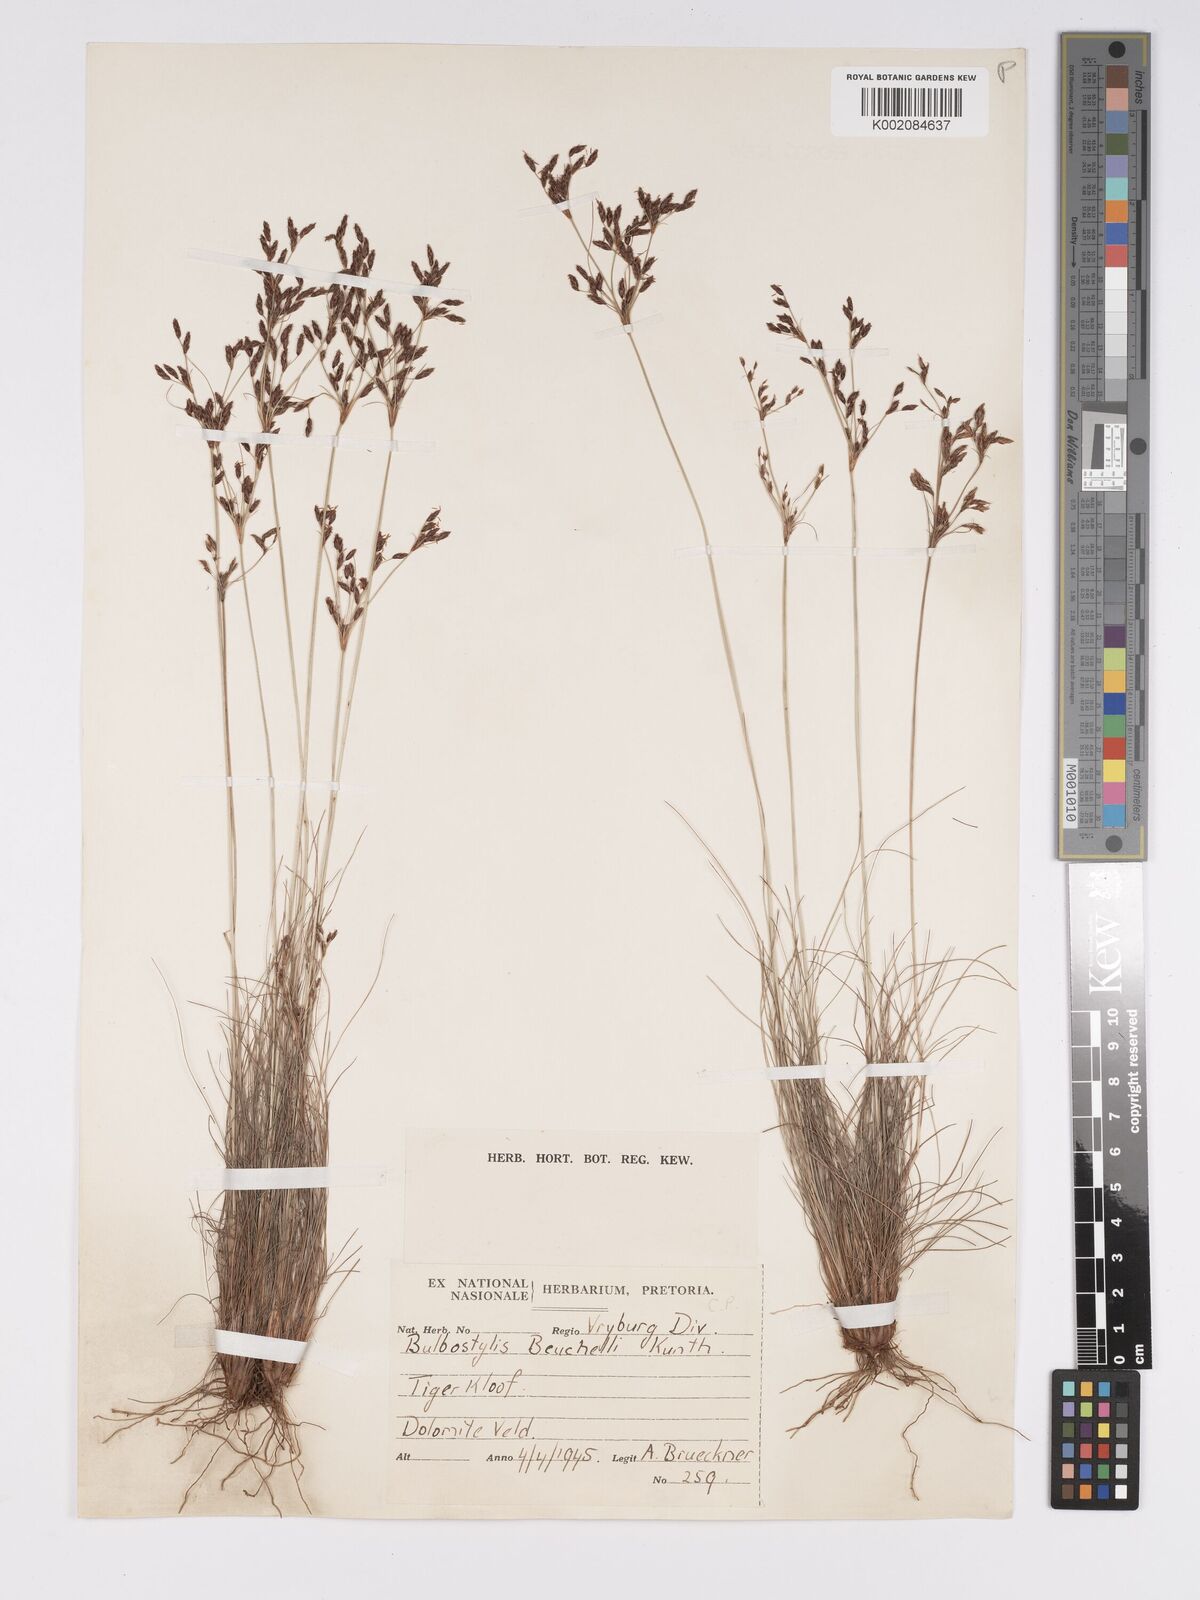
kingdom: Plantae
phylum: Tracheophyta
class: Liliopsida
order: Poales
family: Cyperaceae
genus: Bulbostylis
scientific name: Bulbostylis burchellii
